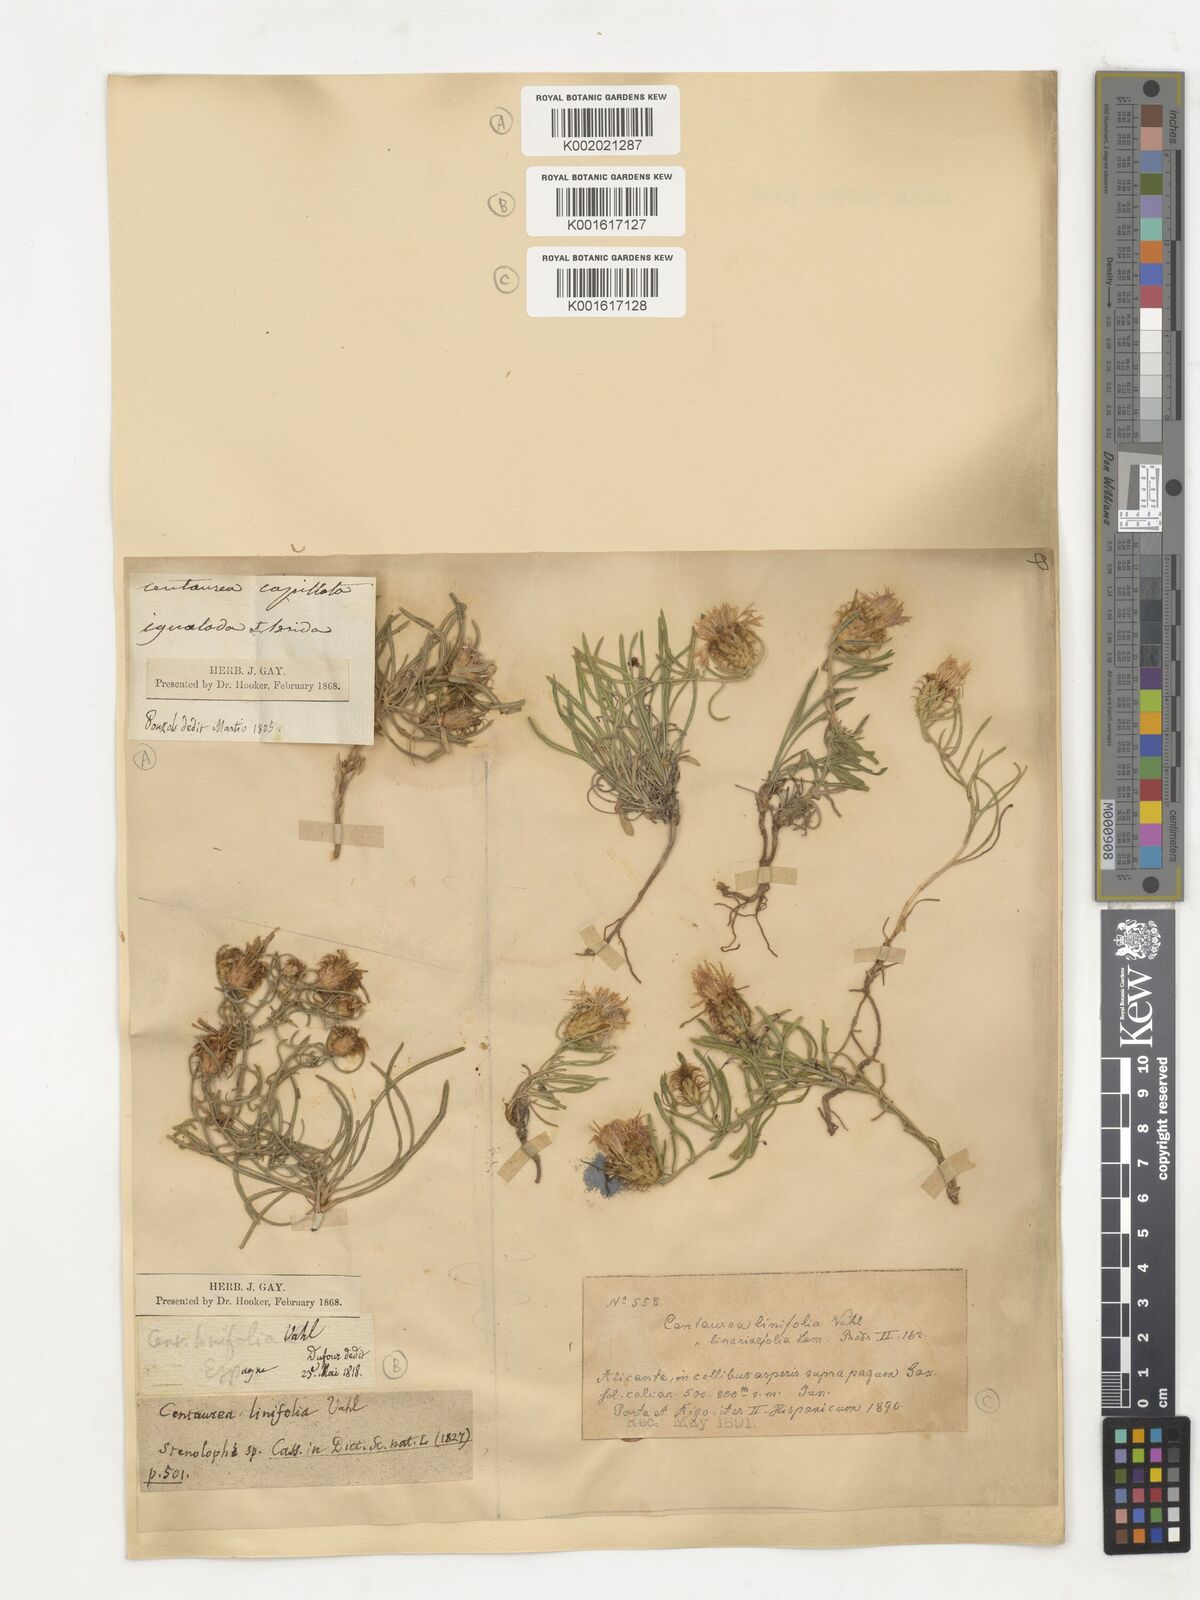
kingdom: Plantae
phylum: Tracheophyta
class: Magnoliopsida
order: Asterales
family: Asteraceae
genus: Centaurea
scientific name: Centaurea capillata
